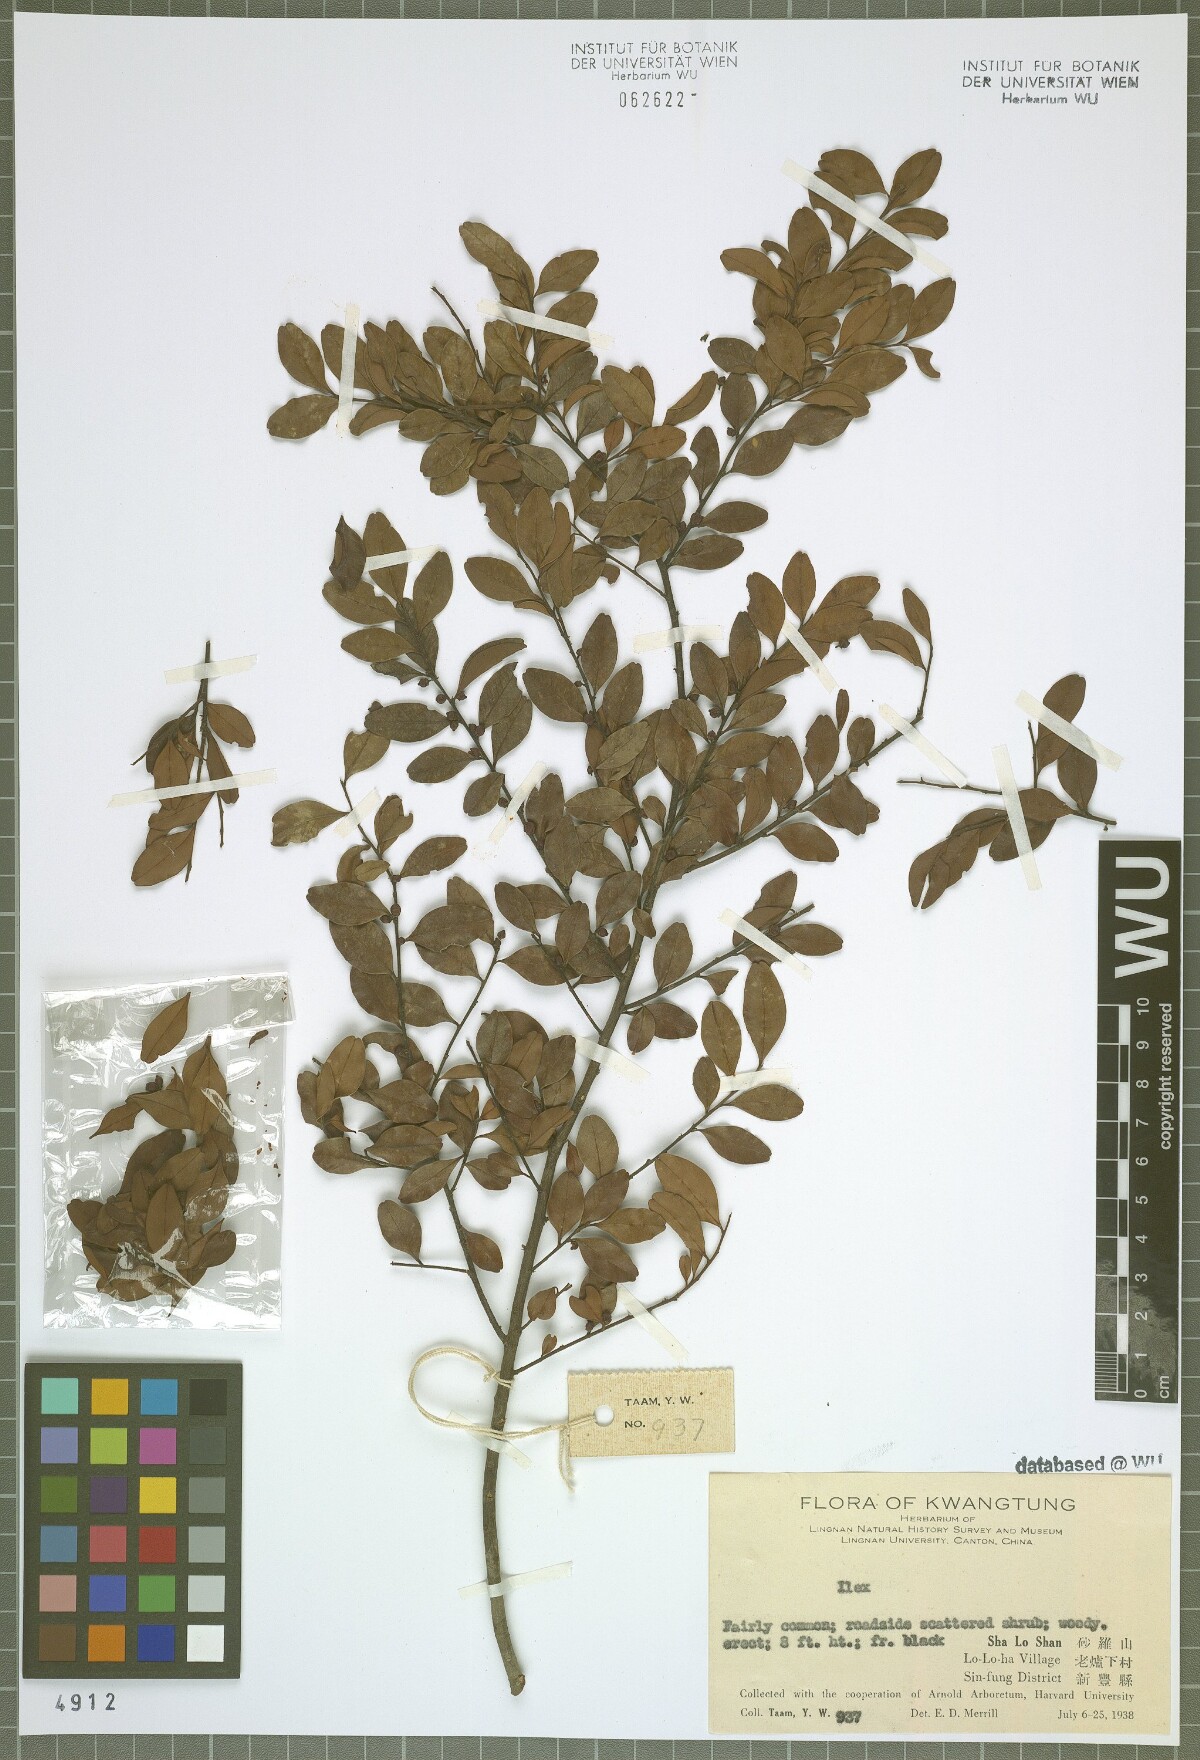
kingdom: Plantae
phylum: Tracheophyta
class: Magnoliopsida
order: Aquifoliales
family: Aquifoliaceae
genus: Ilex
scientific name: Ilex
